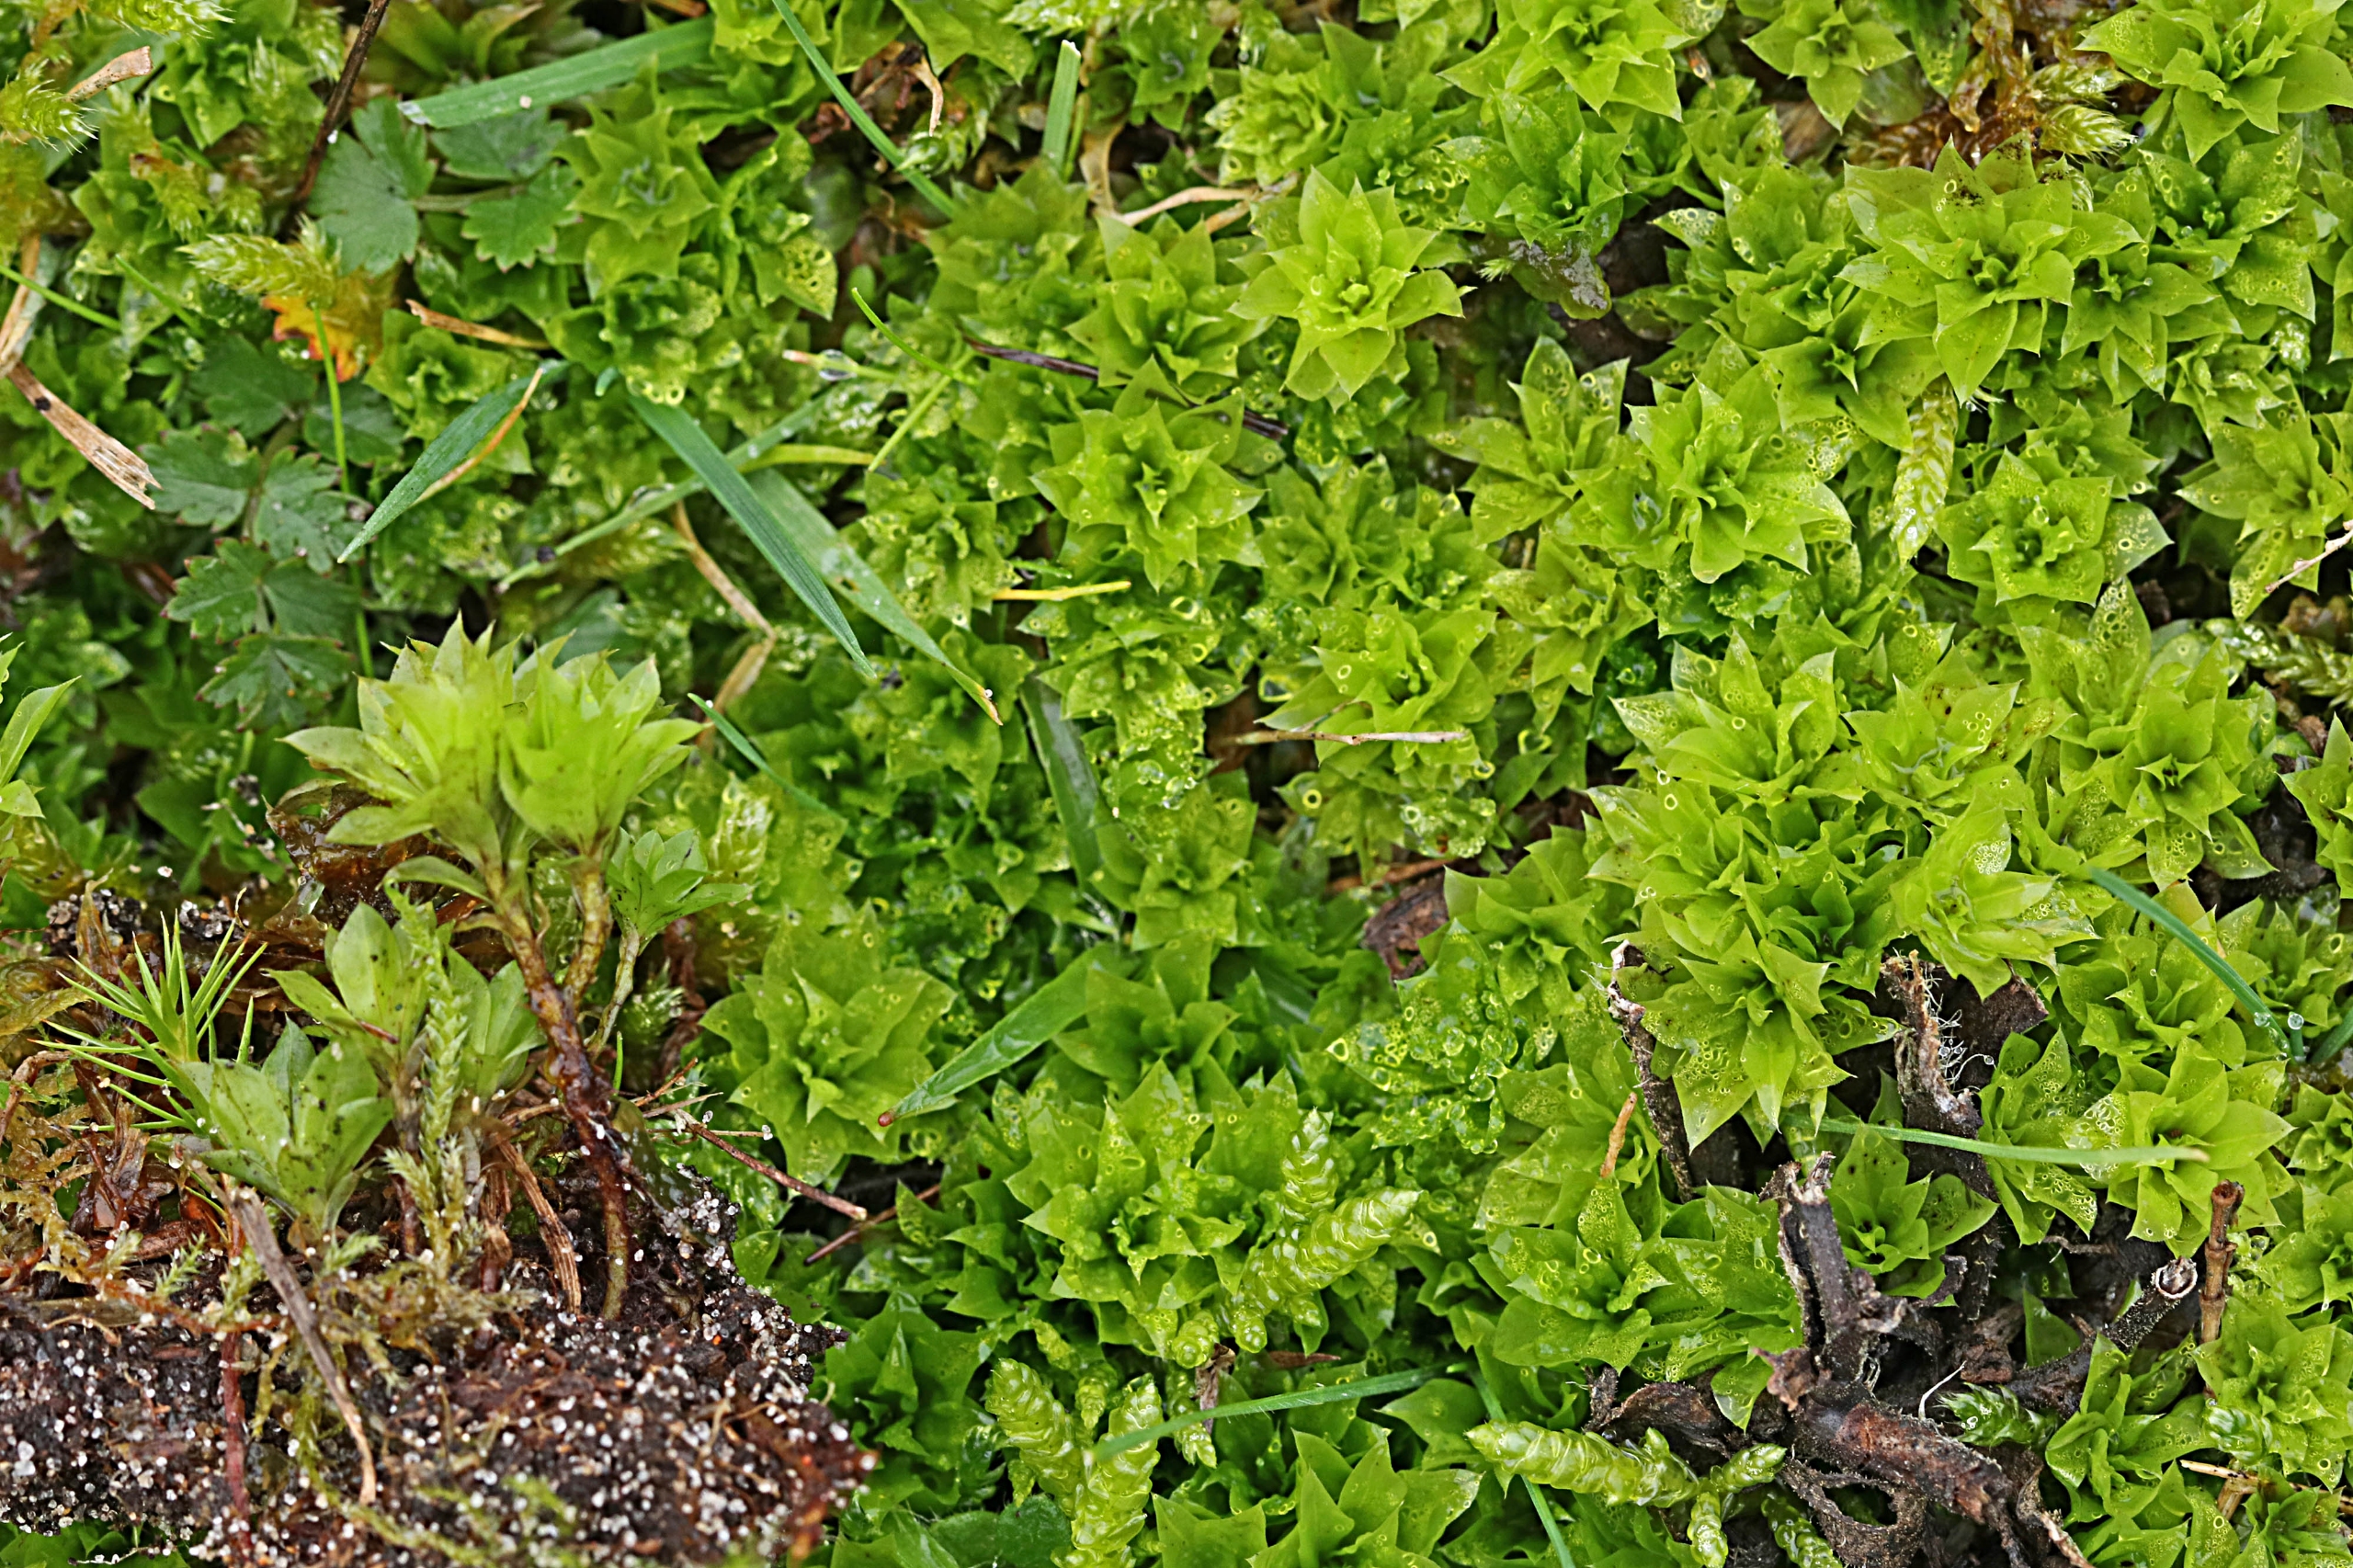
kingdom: Plantae
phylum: Bryophyta
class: Bryopsida
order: Bryales
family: Bryaceae
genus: Rhodobryum
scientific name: Rhodobryum roseum
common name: Stor rosetmos
